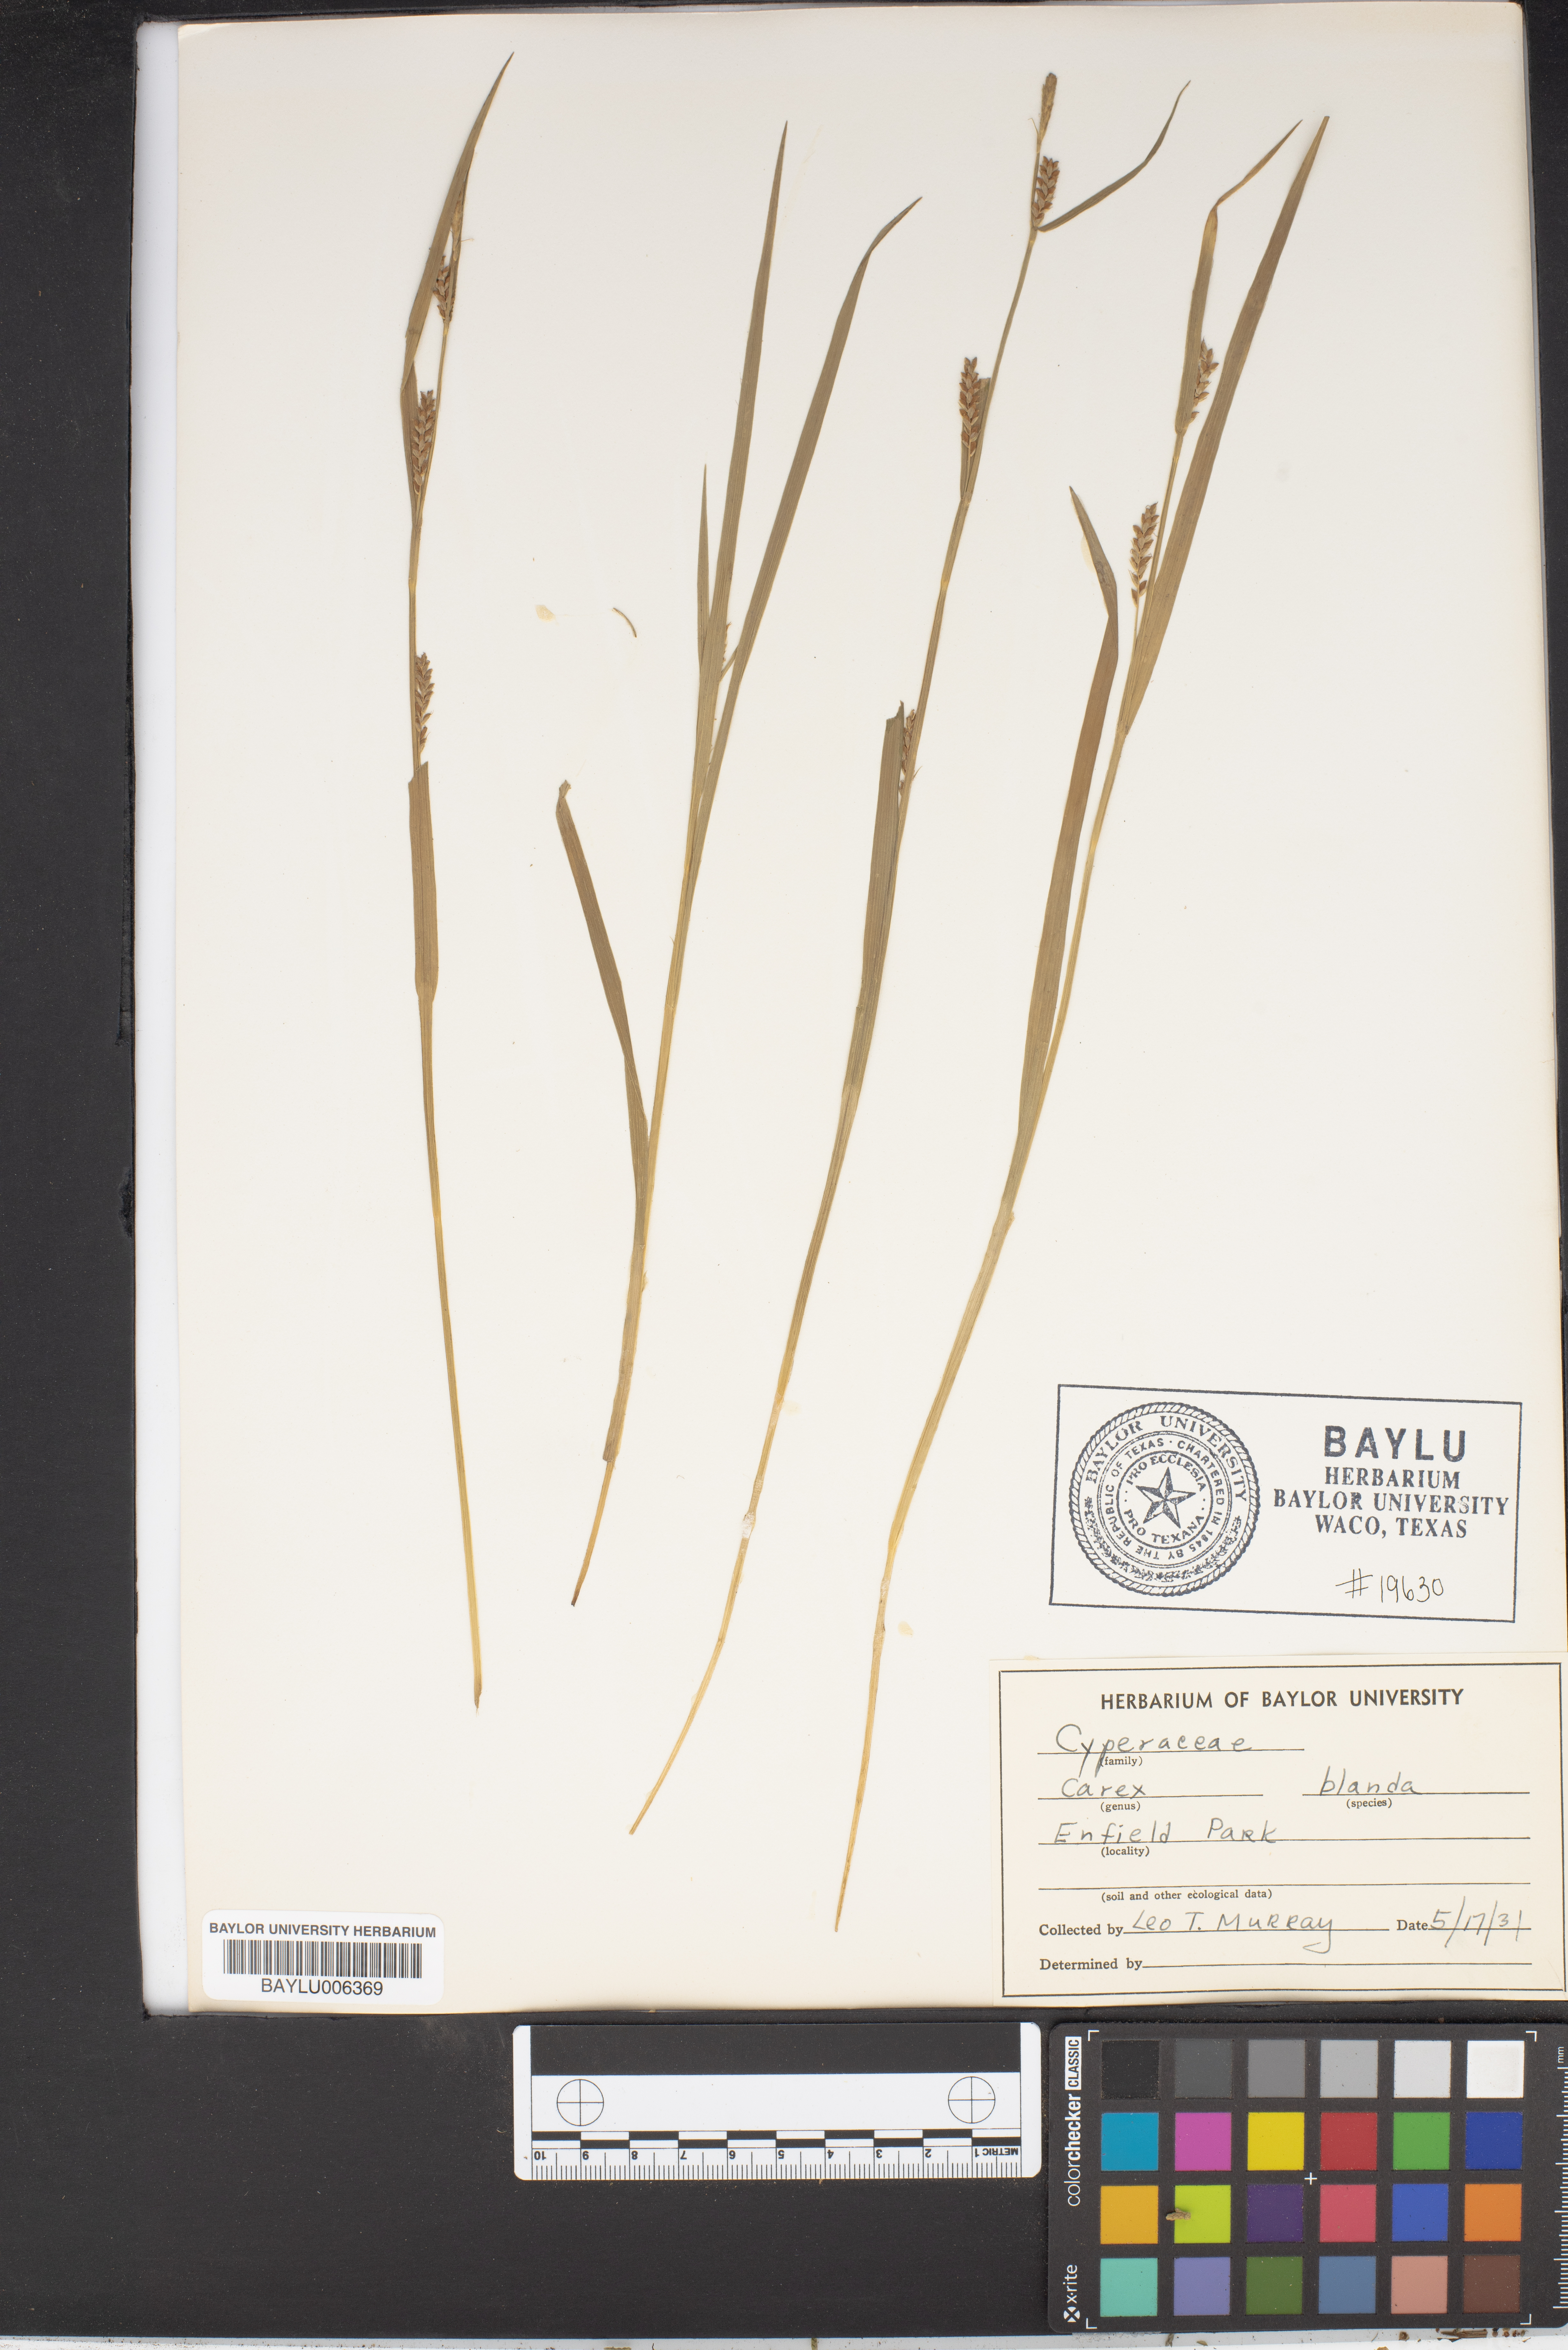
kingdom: Plantae
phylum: Tracheophyta
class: Liliopsida
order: Poales
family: Cyperaceae
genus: Carex
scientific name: Carex blanda
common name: Bland sedge
